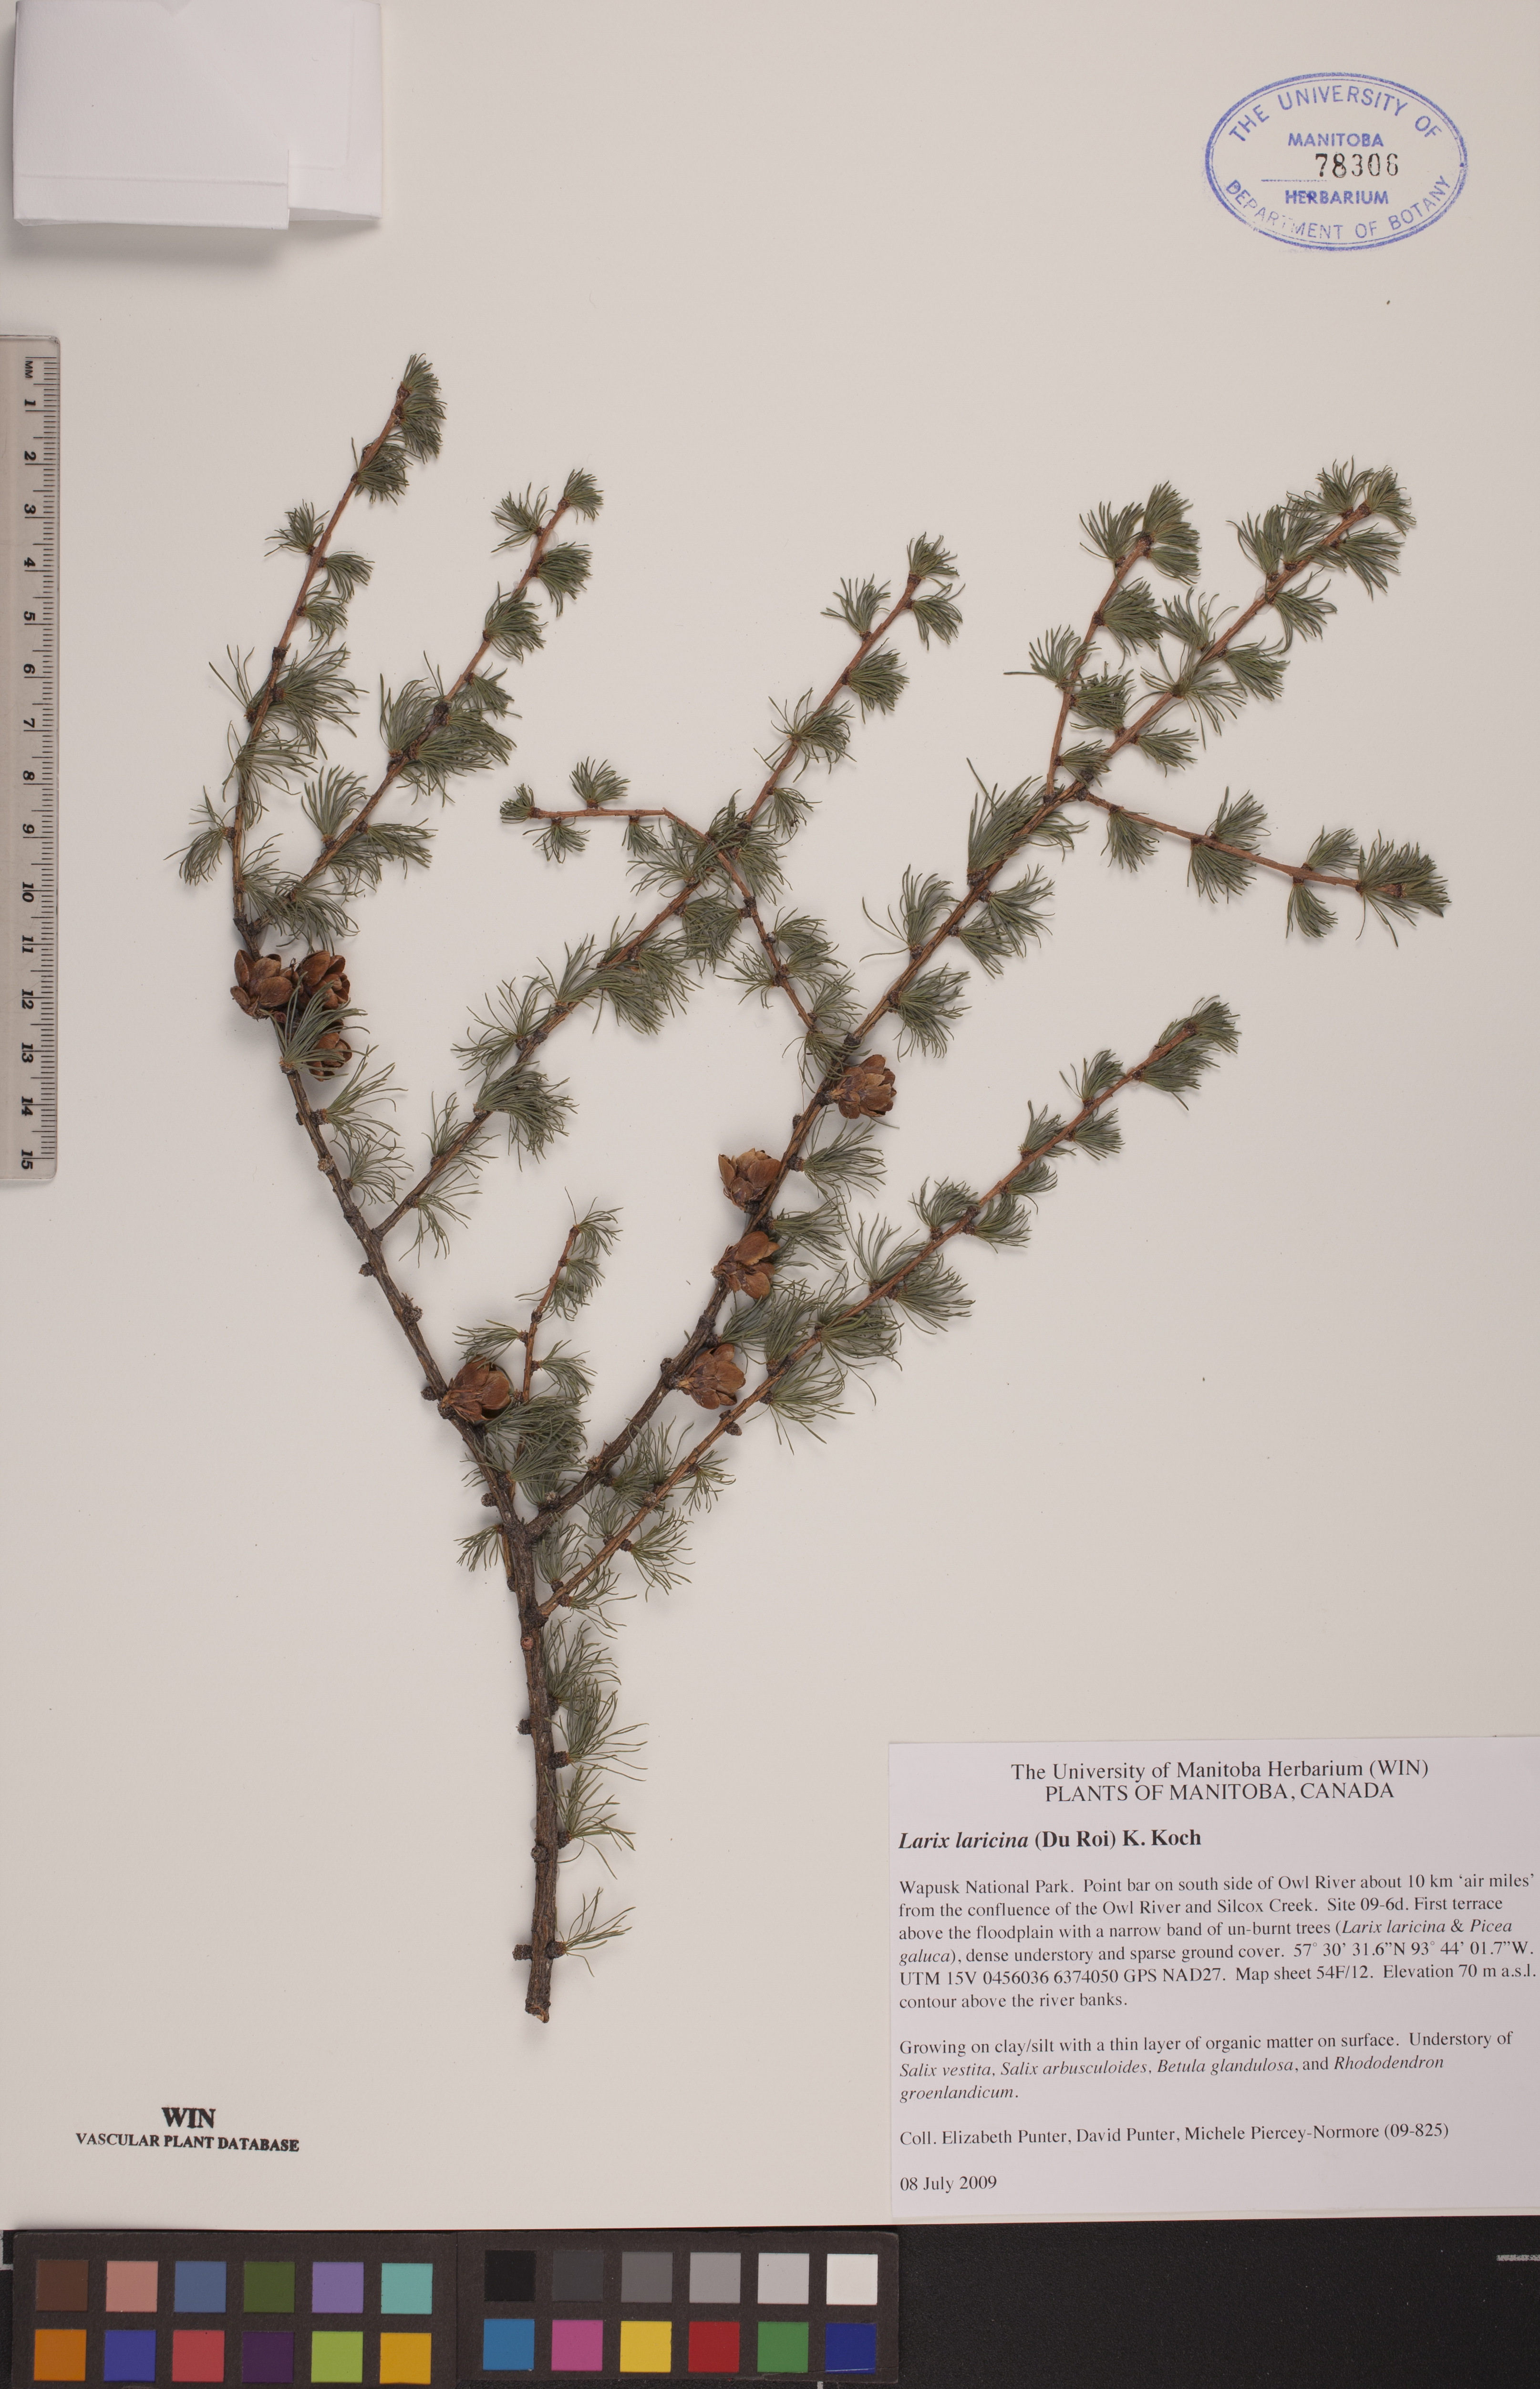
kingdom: Plantae
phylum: Tracheophyta
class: Pinopsida
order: Pinales
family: Pinaceae
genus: Larix
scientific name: Larix laricina
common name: American larch
